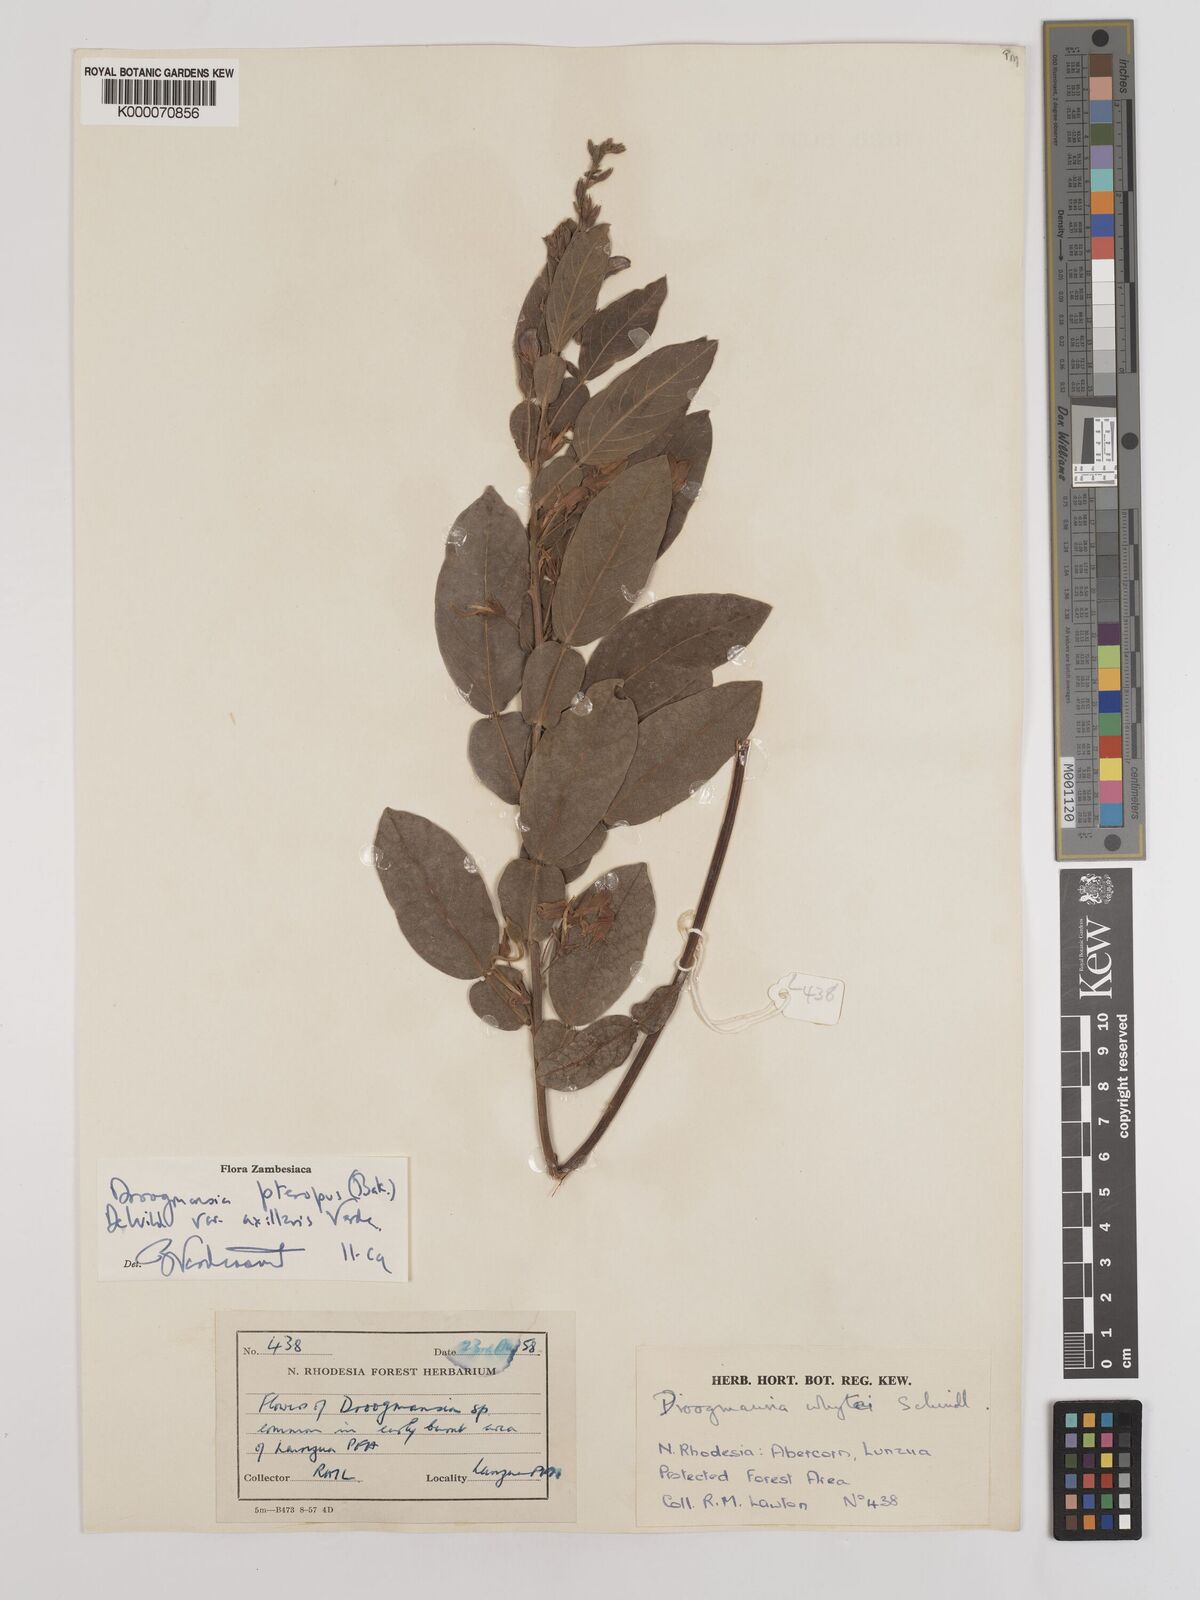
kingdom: Plantae
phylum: Tracheophyta
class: Magnoliopsida
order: Fabales
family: Fabaceae
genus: Droogmansia
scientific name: Droogmansia pteropus
